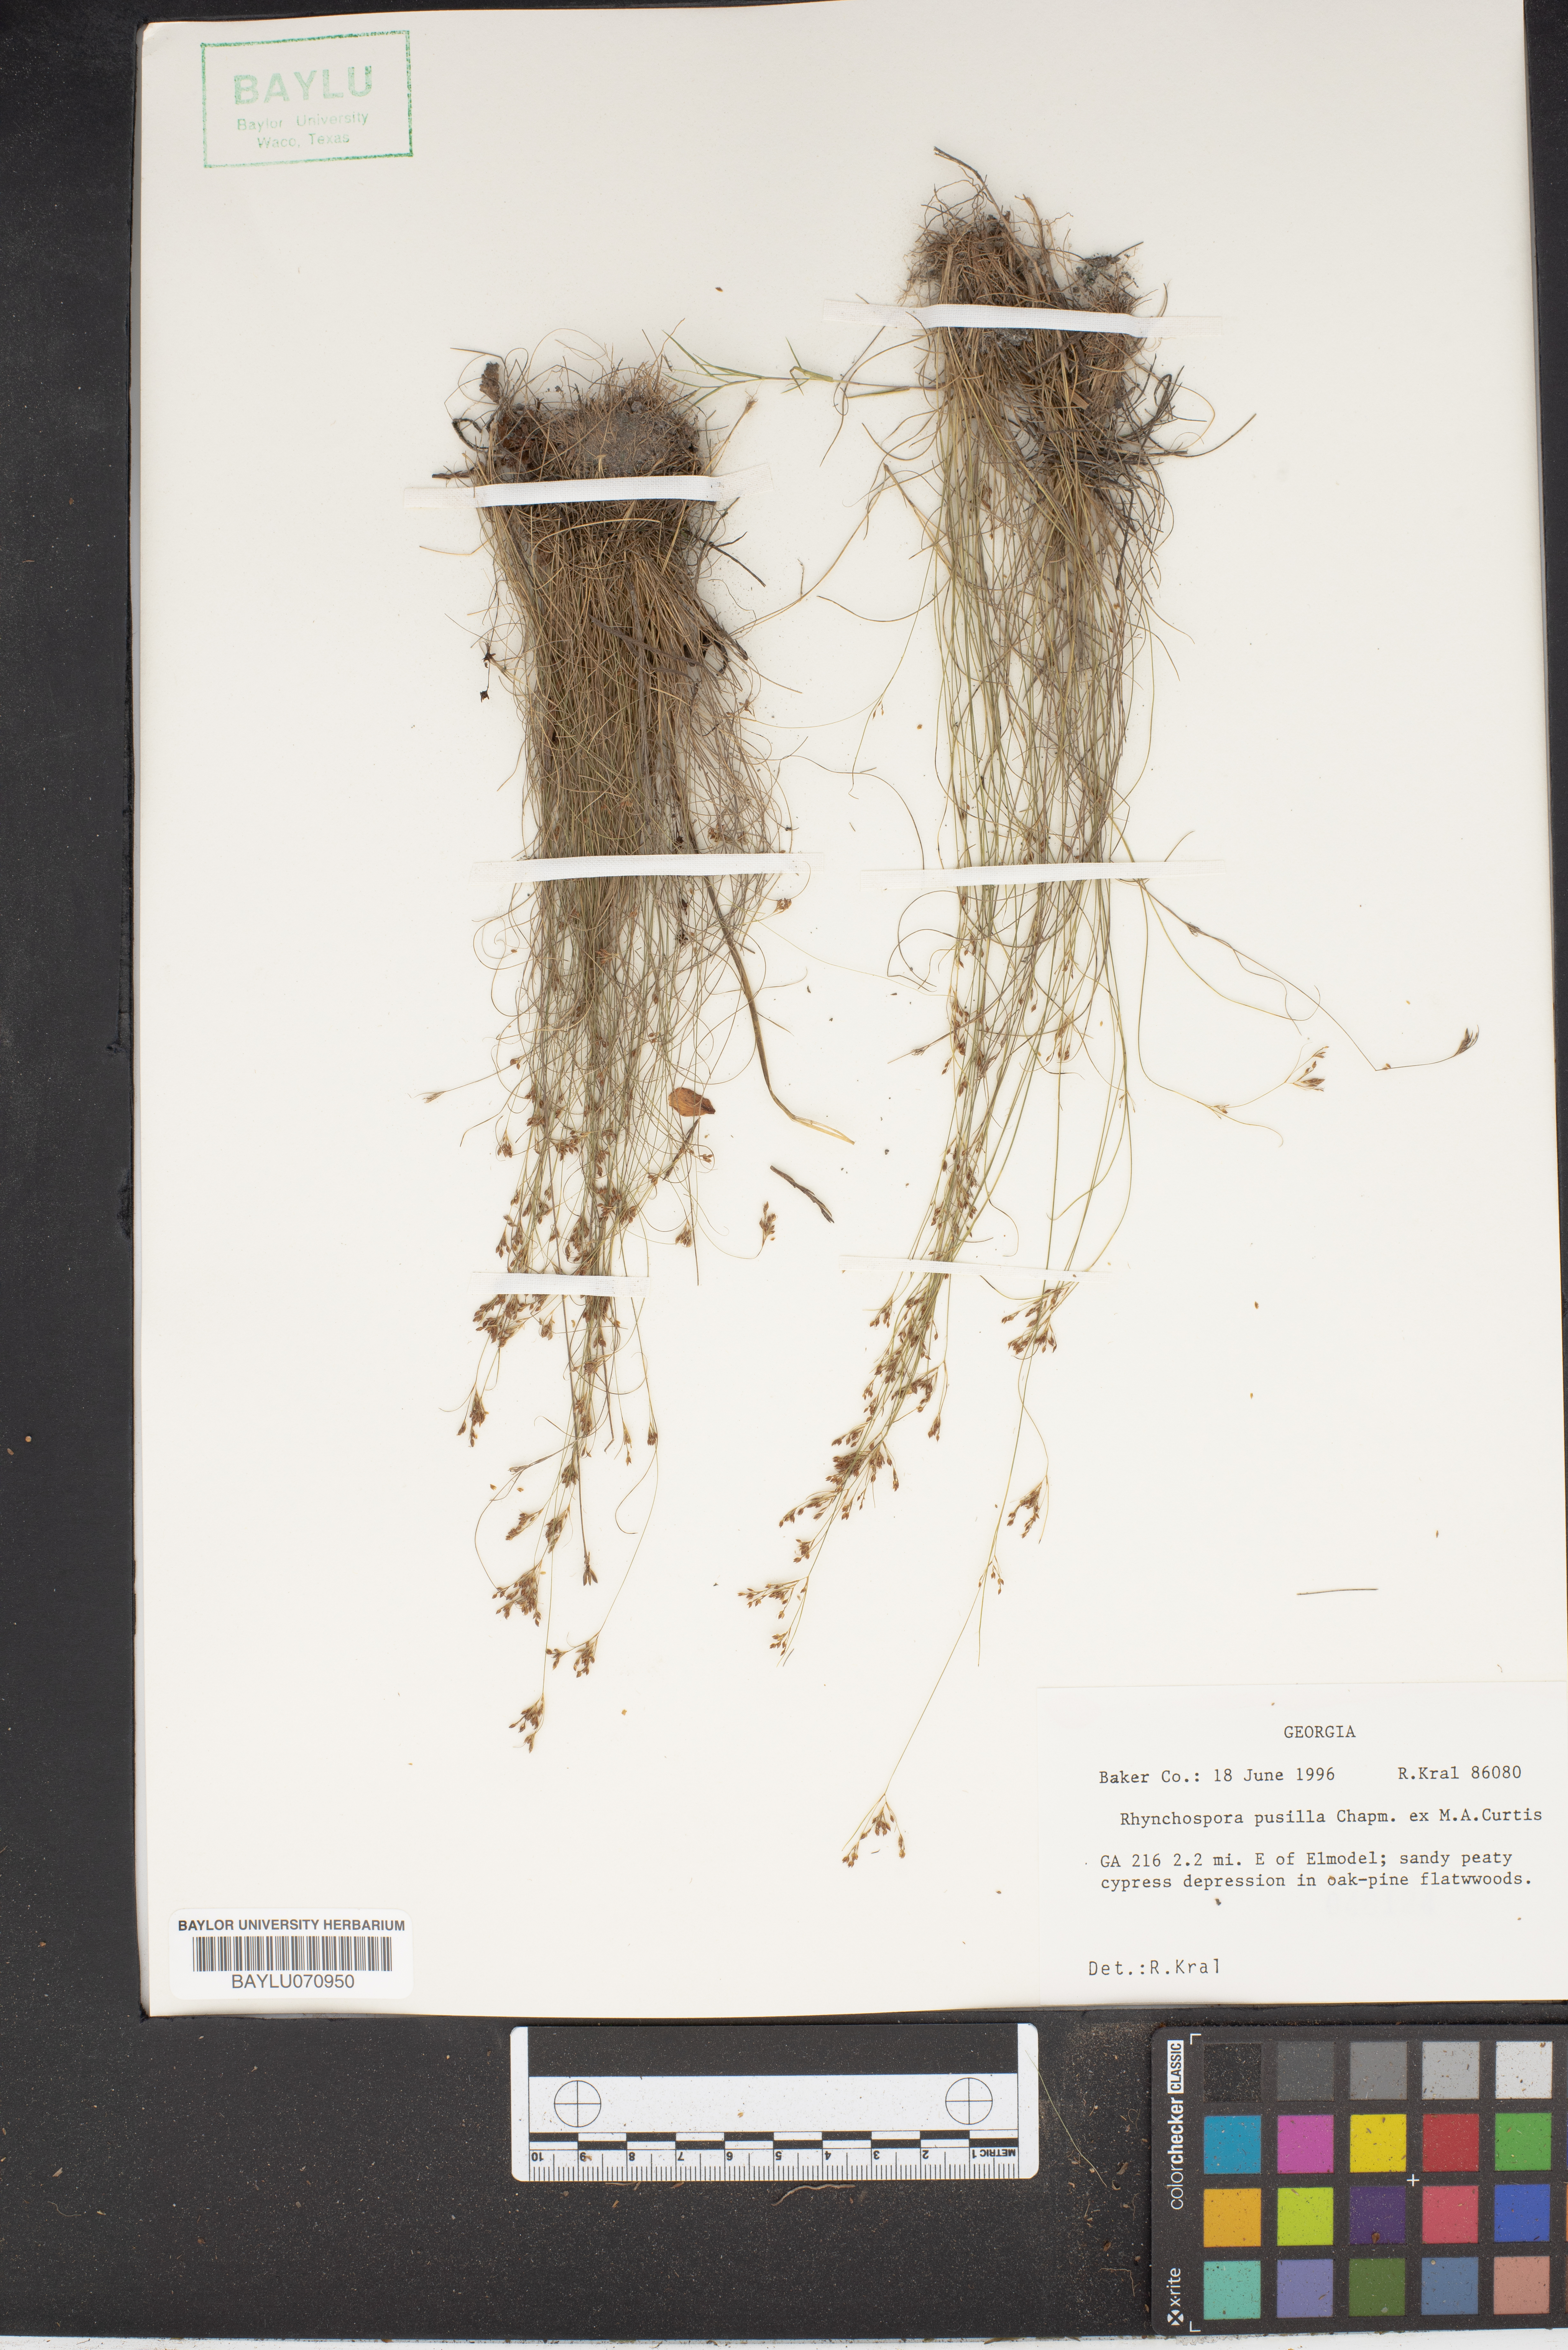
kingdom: Plantae
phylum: Tracheophyta
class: Liliopsida
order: Poales
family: Cyperaceae
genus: Rhynchospora
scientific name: Rhynchospora pusilla
